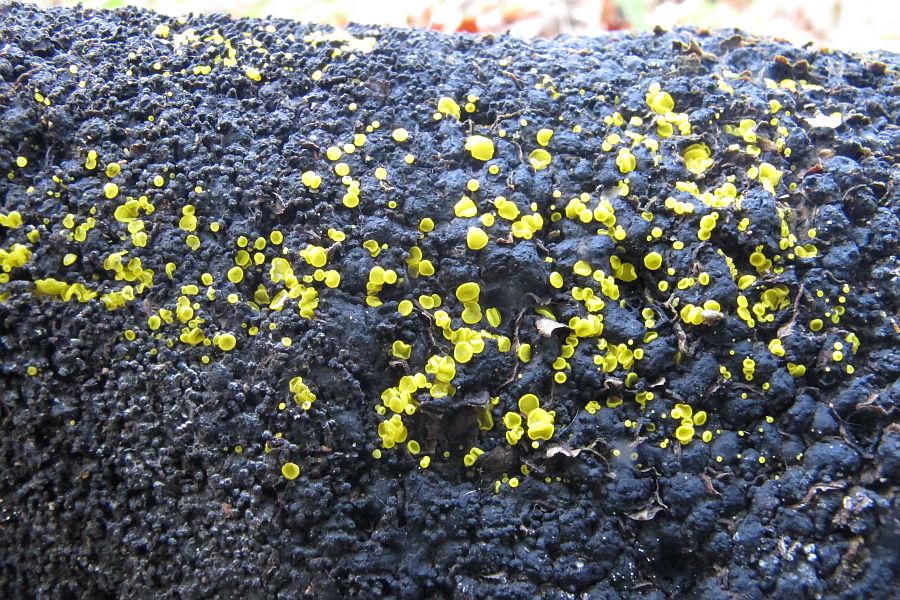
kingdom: Fungi
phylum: Ascomycota
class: Leotiomycetes
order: Helotiales
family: Pezizellaceae
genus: Calycina
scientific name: Calycina claroflava
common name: snyltende gulskive
